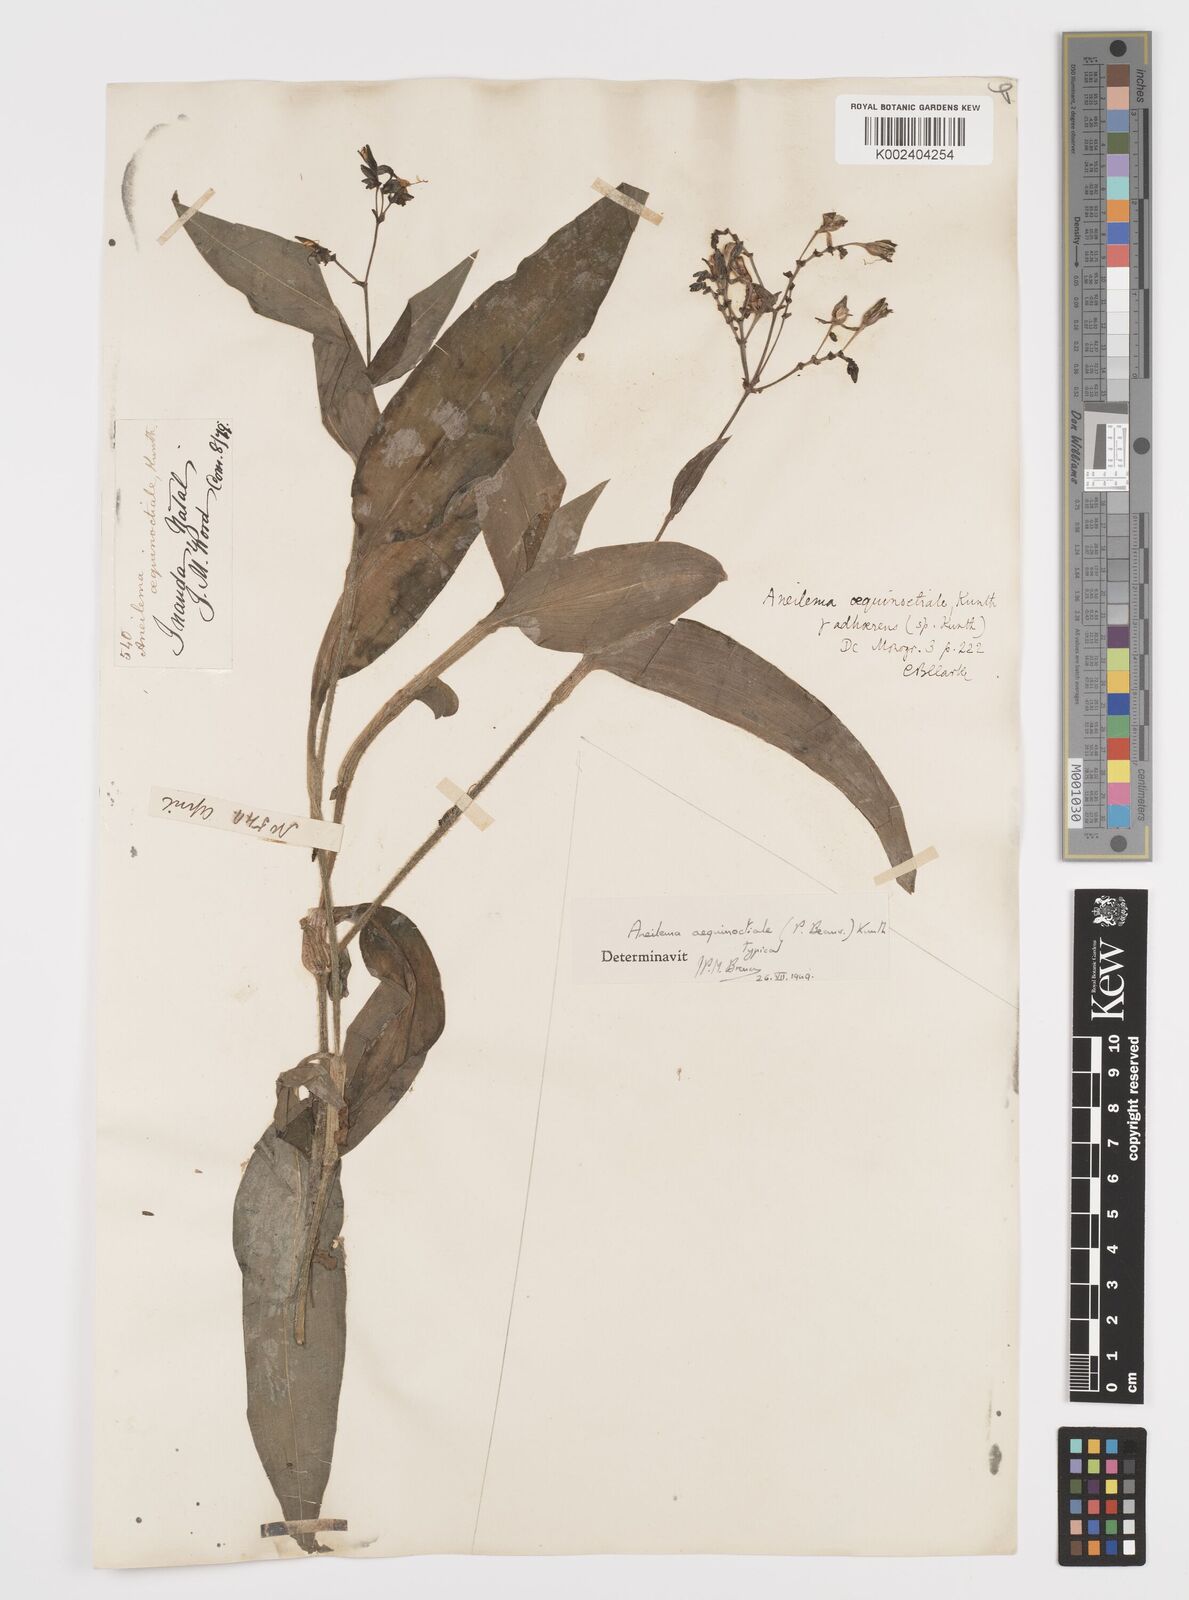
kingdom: Plantae
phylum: Tracheophyta
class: Liliopsida
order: Commelinales
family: Commelinaceae
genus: Aneilema
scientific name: Aneilema aequinoctiale
